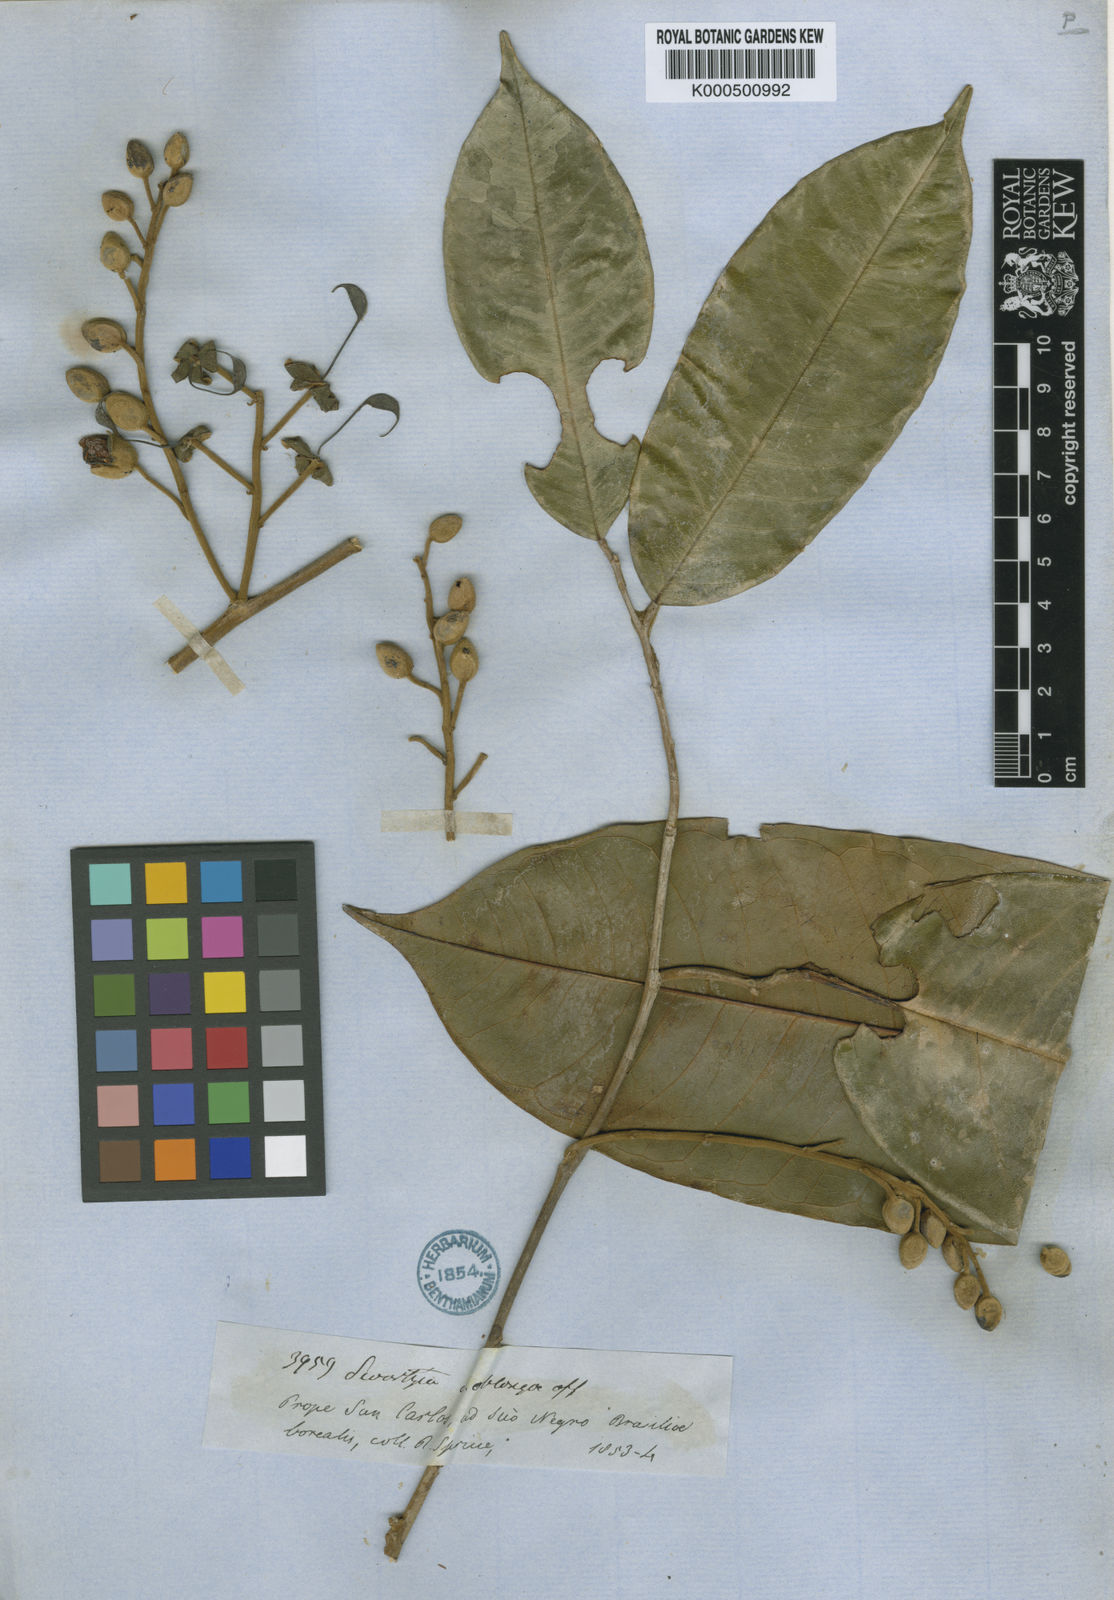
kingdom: Plantae
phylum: Tracheophyta
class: Magnoliopsida
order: Fabales
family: Fabaceae
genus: Swartzia
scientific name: Swartzia floribunda
